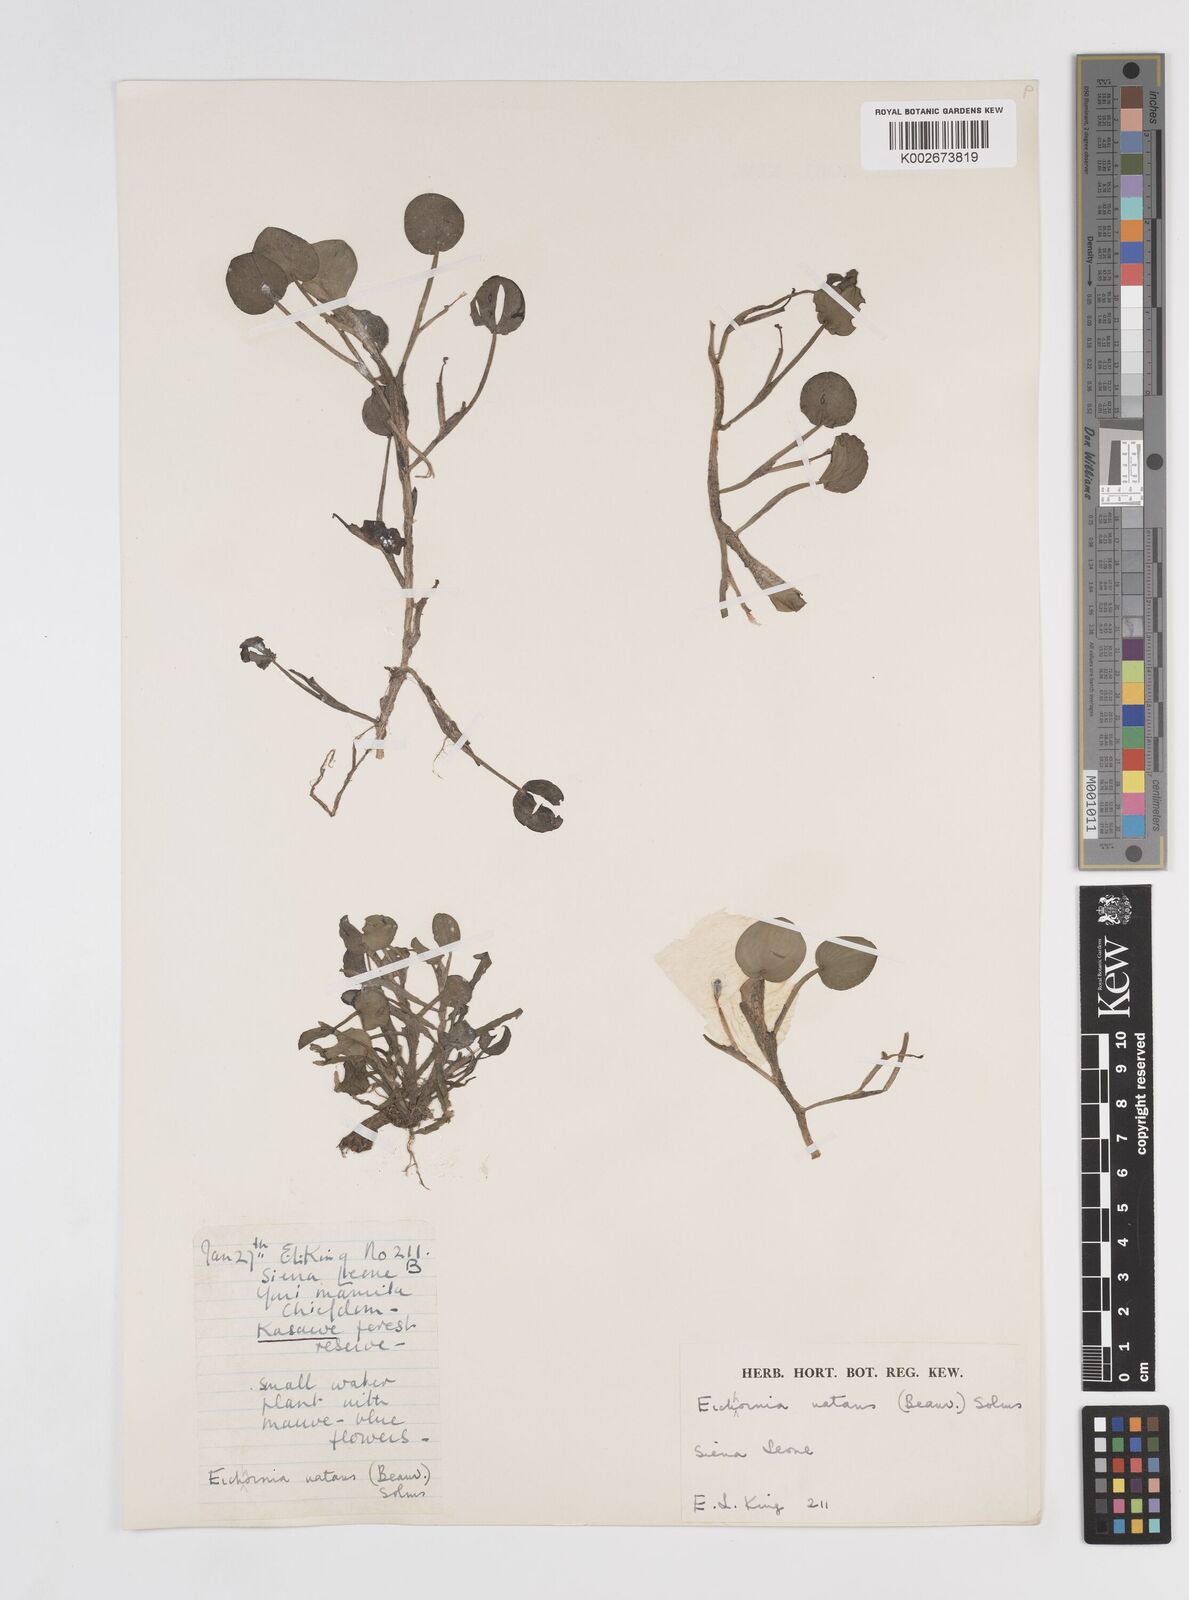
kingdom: Plantae
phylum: Tracheophyta
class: Liliopsida
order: Commelinales
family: Pontederiaceae
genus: Pontederia
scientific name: Pontederia diversifolia
